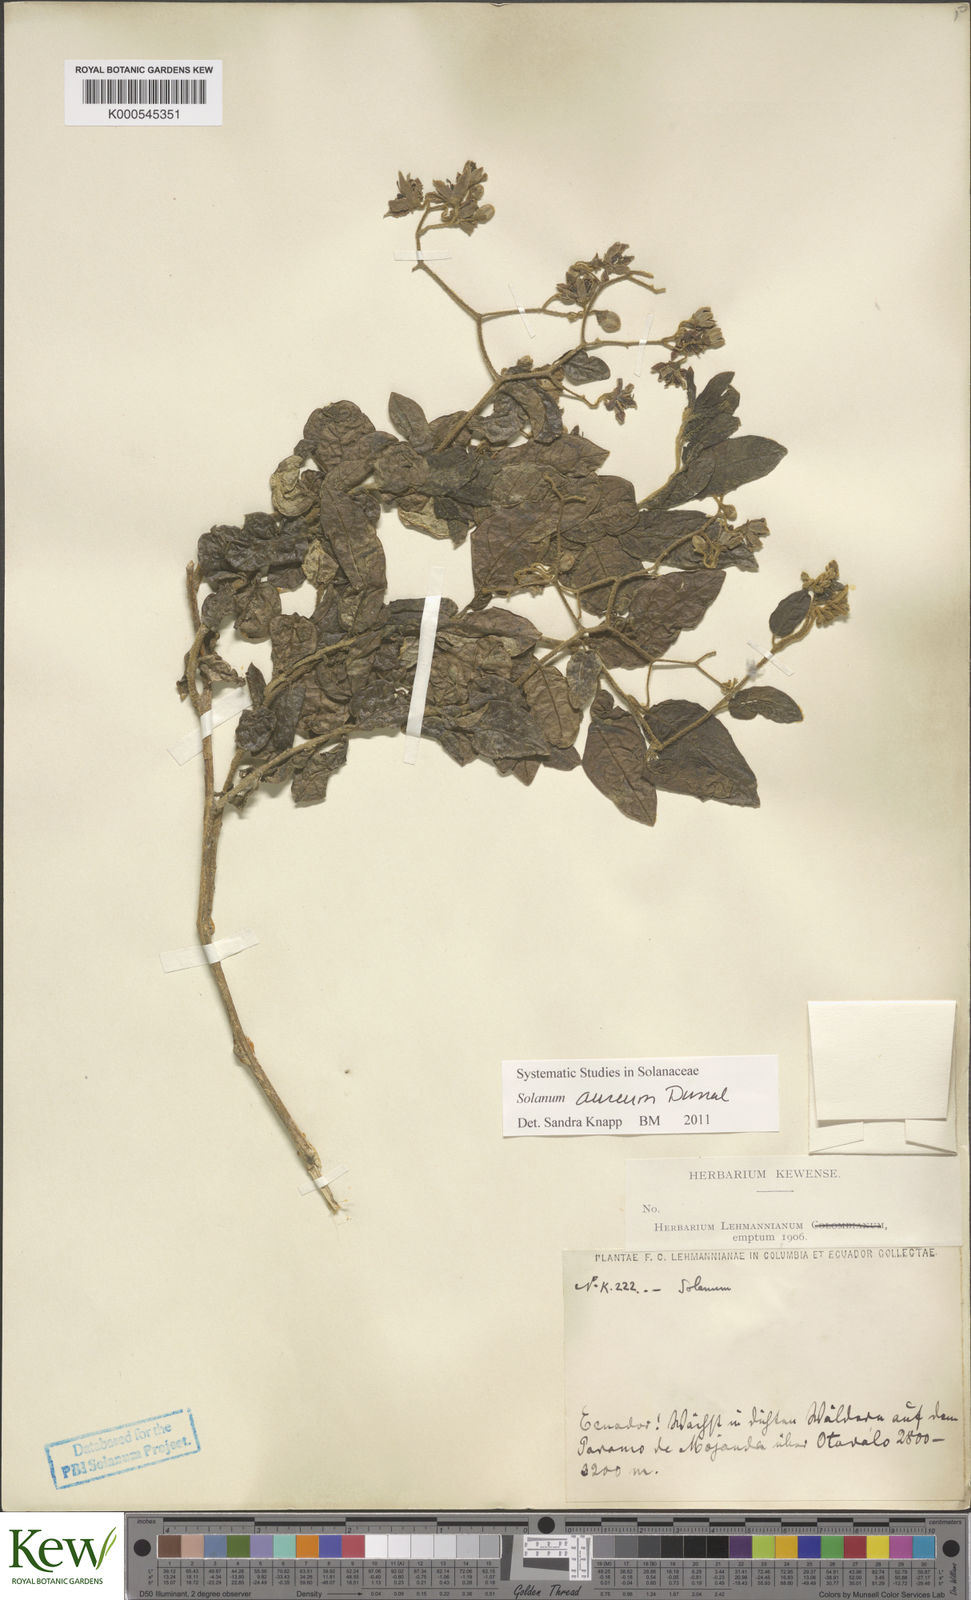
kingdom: Plantae
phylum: Tracheophyta
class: Magnoliopsida
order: Solanales
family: Solanaceae
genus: Solanum
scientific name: Solanum aureum
